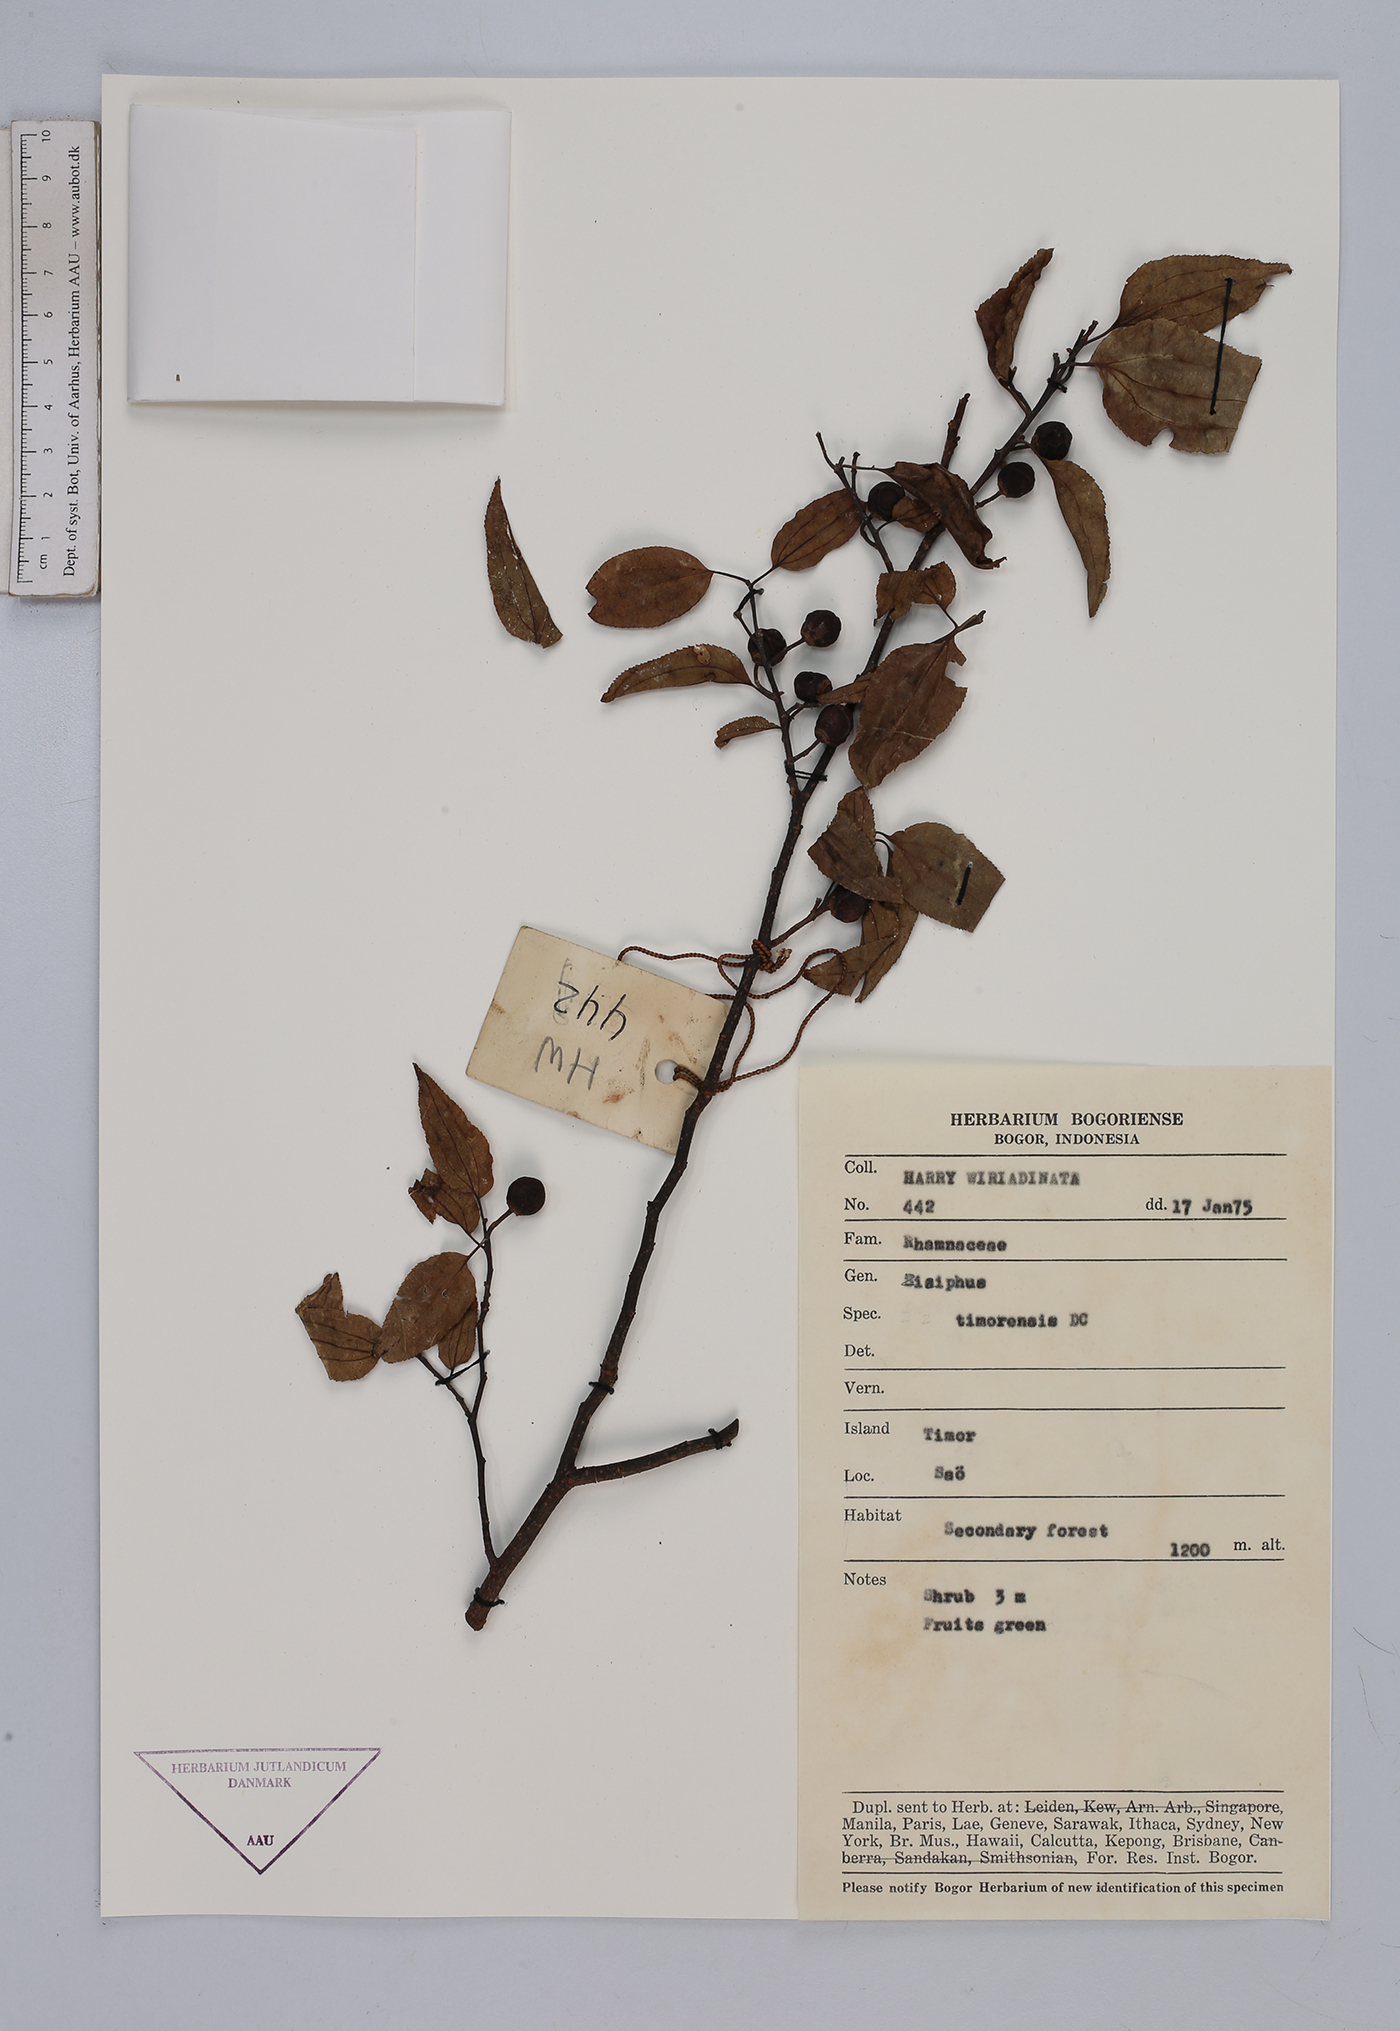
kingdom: Plantae
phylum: Tracheophyta
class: Magnoliopsida
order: Rosales
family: Rhamnaceae
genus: Ziziphus
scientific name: Ziziphus timoriensis
